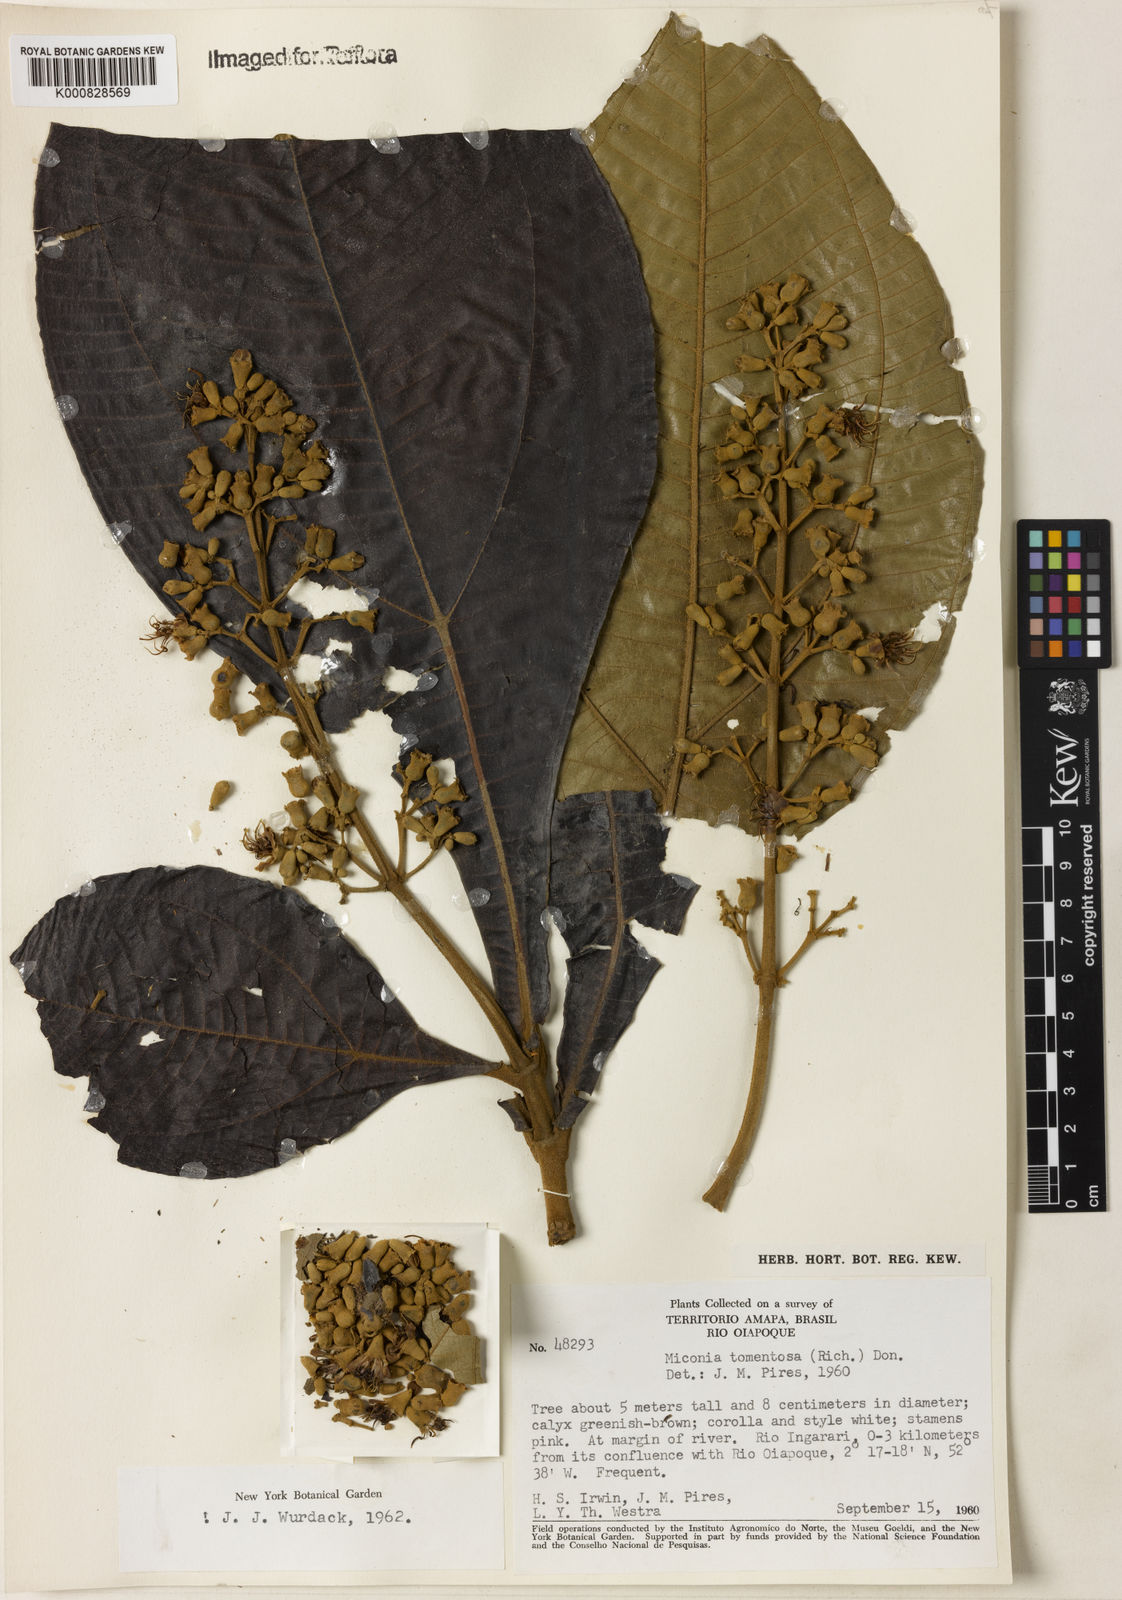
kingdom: Plantae
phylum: Tracheophyta
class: Magnoliopsida
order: Myrtales
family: Melastomataceae
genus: Miconia
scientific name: Miconia tomentosa
